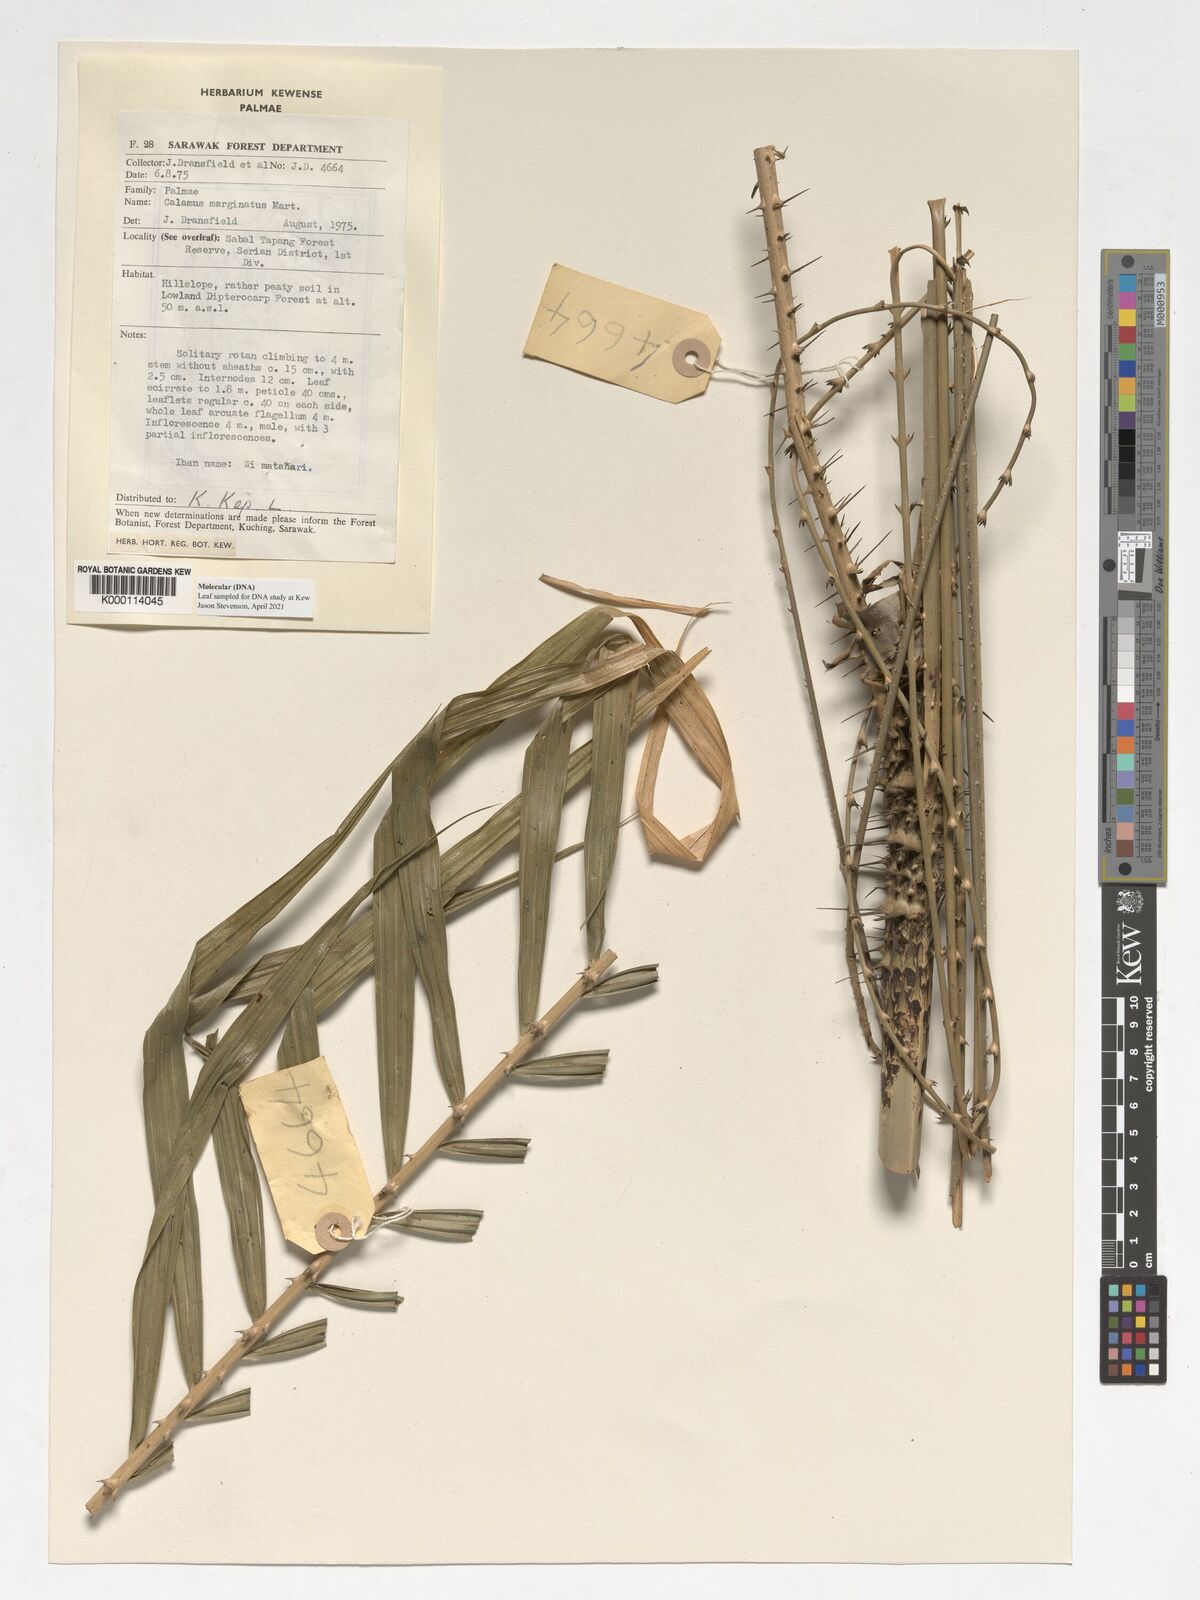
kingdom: Plantae
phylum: Tracheophyta
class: Liliopsida
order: Arecales
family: Arecaceae
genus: Calamus
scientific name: Calamus marginatus
